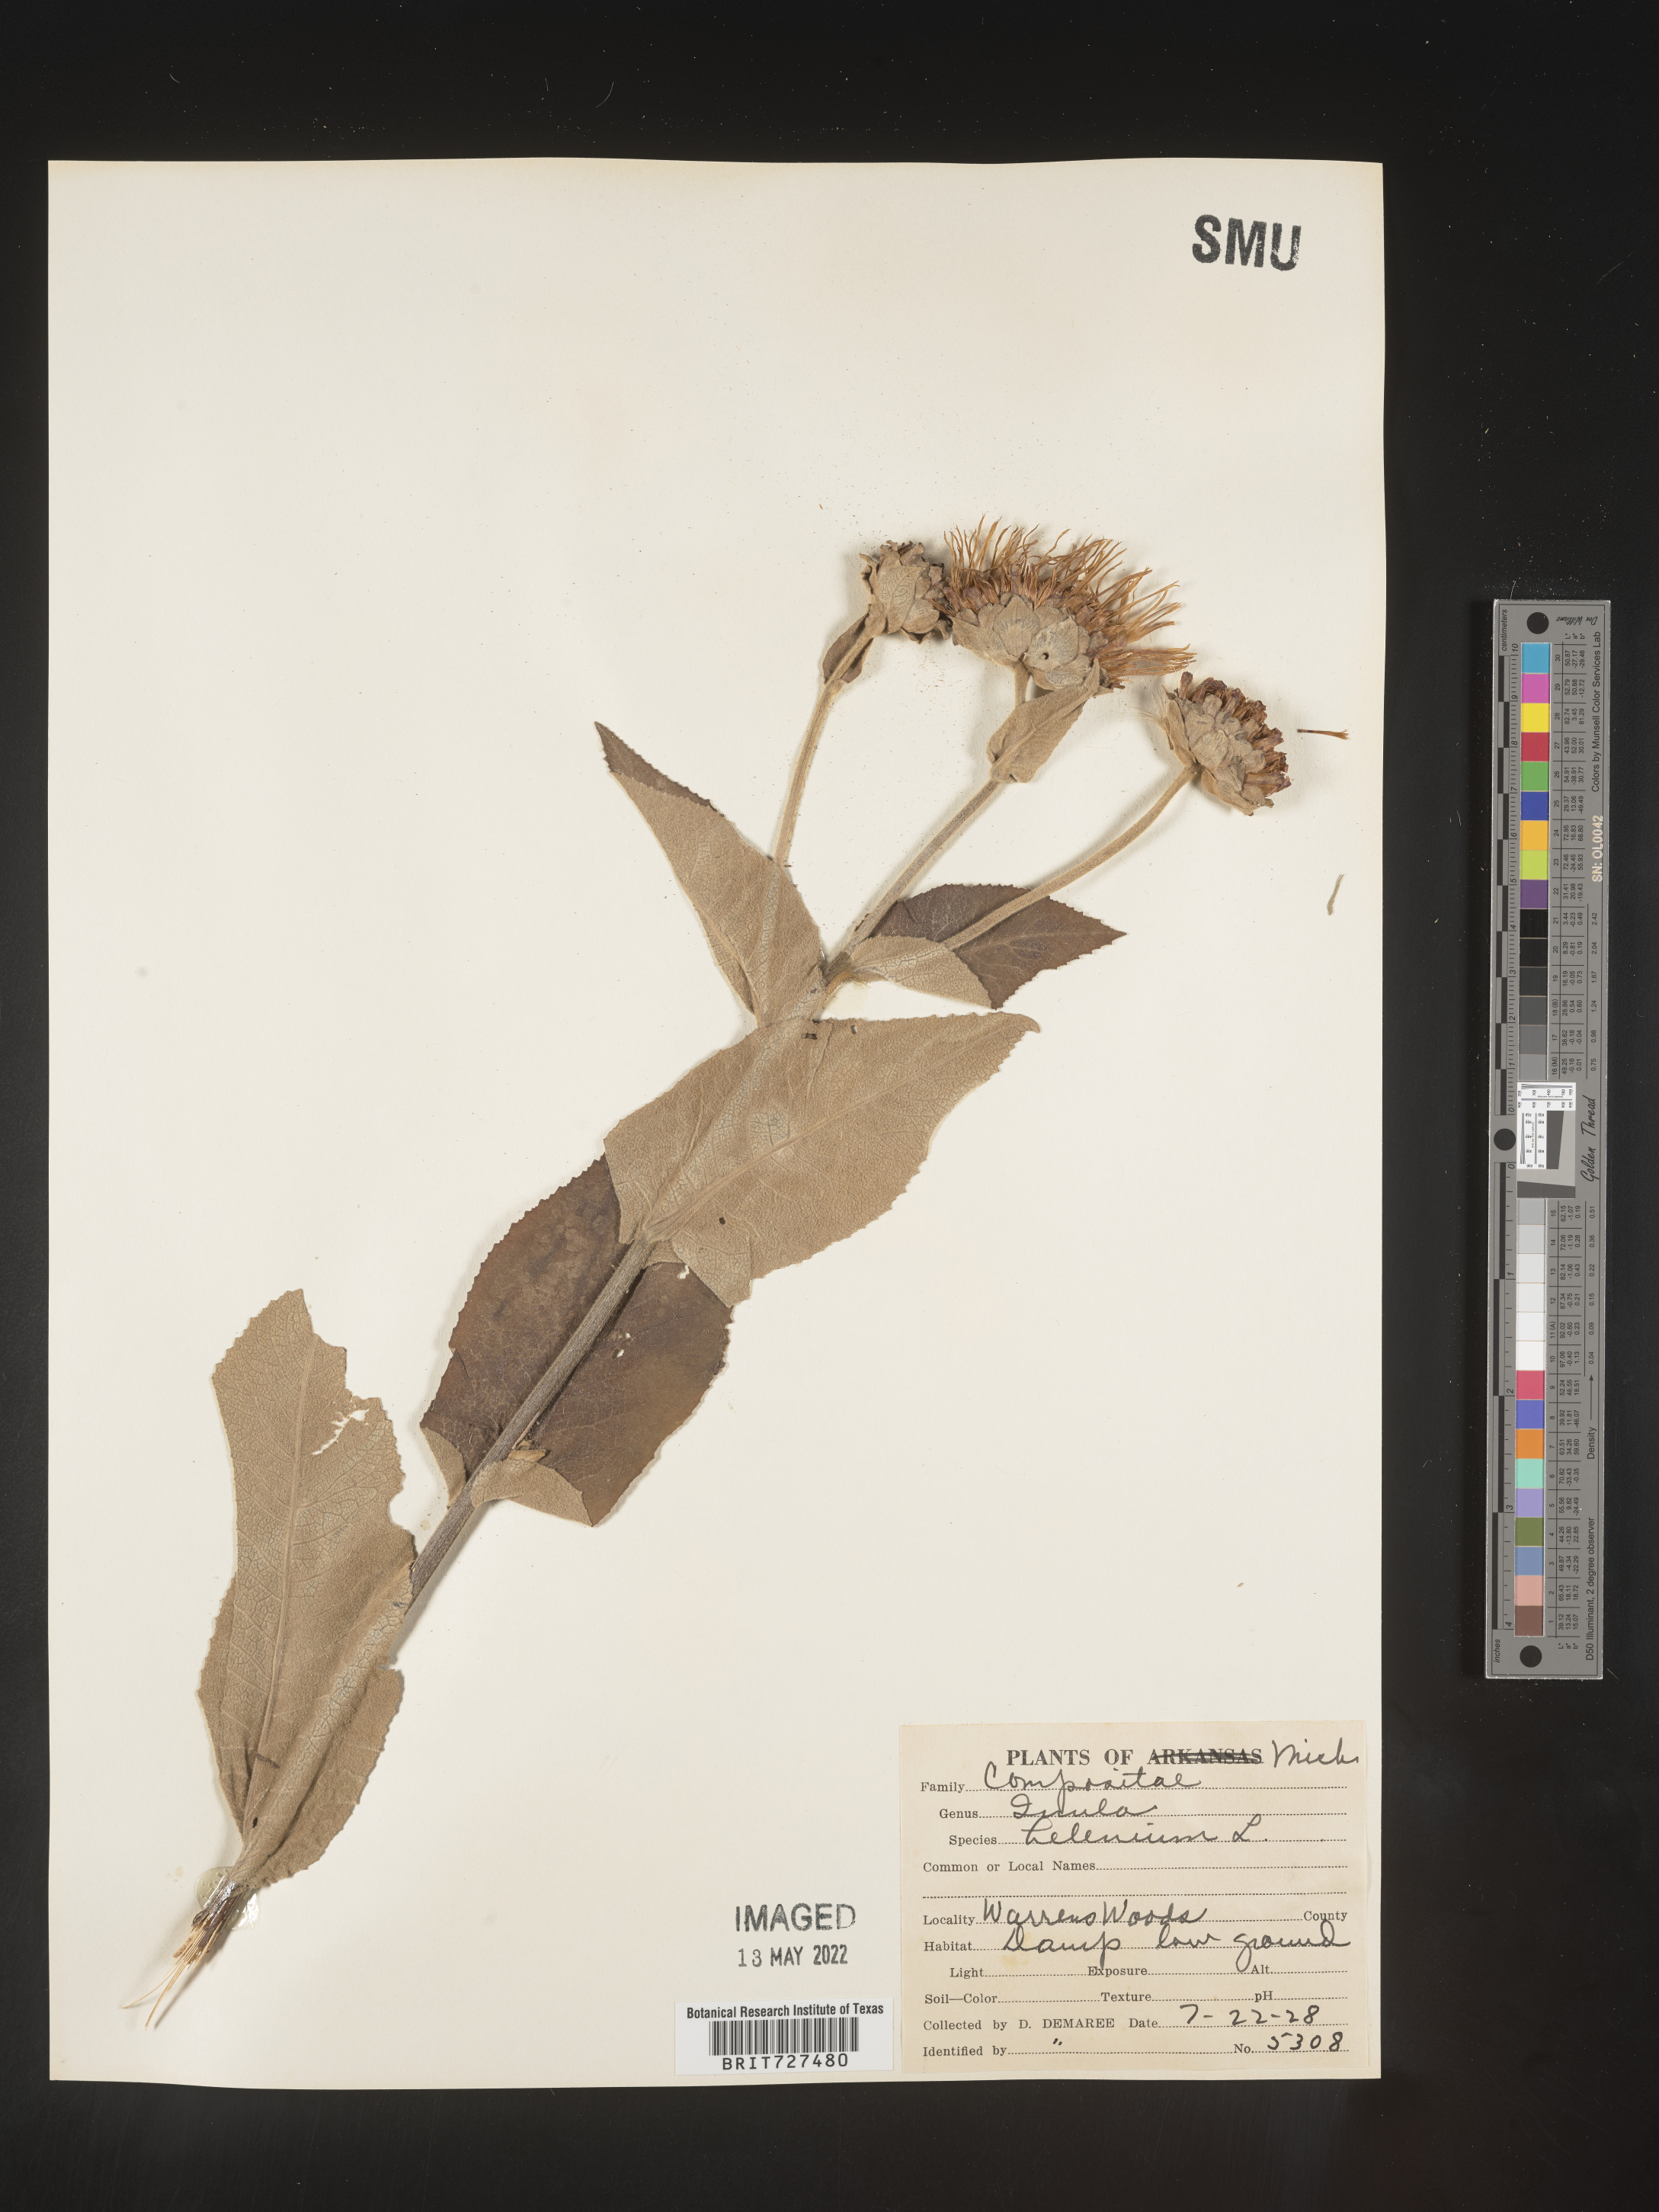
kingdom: Plantae
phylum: Tracheophyta
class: Magnoliopsida
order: Asterales
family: Asteraceae
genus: Inula
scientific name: Inula helenium
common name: Elecampane
